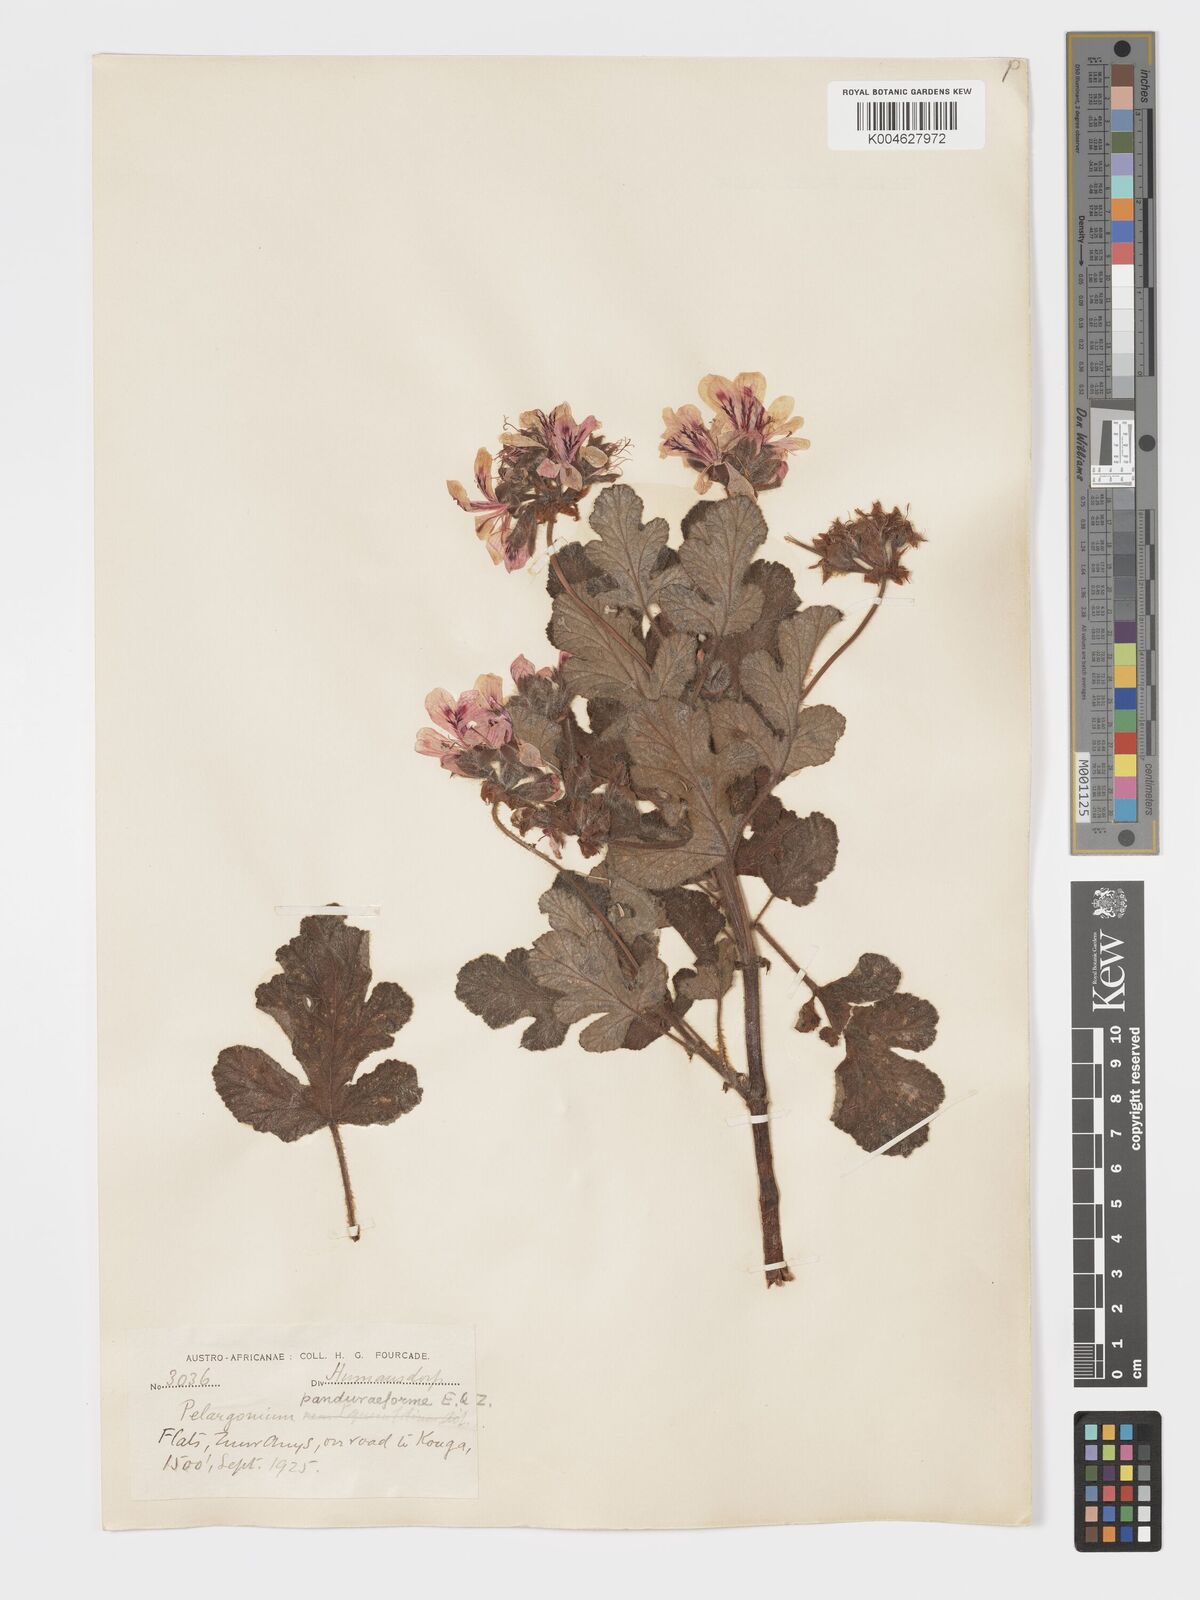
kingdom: Plantae
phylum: Tracheophyta
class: Magnoliopsida
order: Geraniales
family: Geraniaceae
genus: Pelargonium
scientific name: Pelargonium panduriforme
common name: Oakleaf garden geranium
